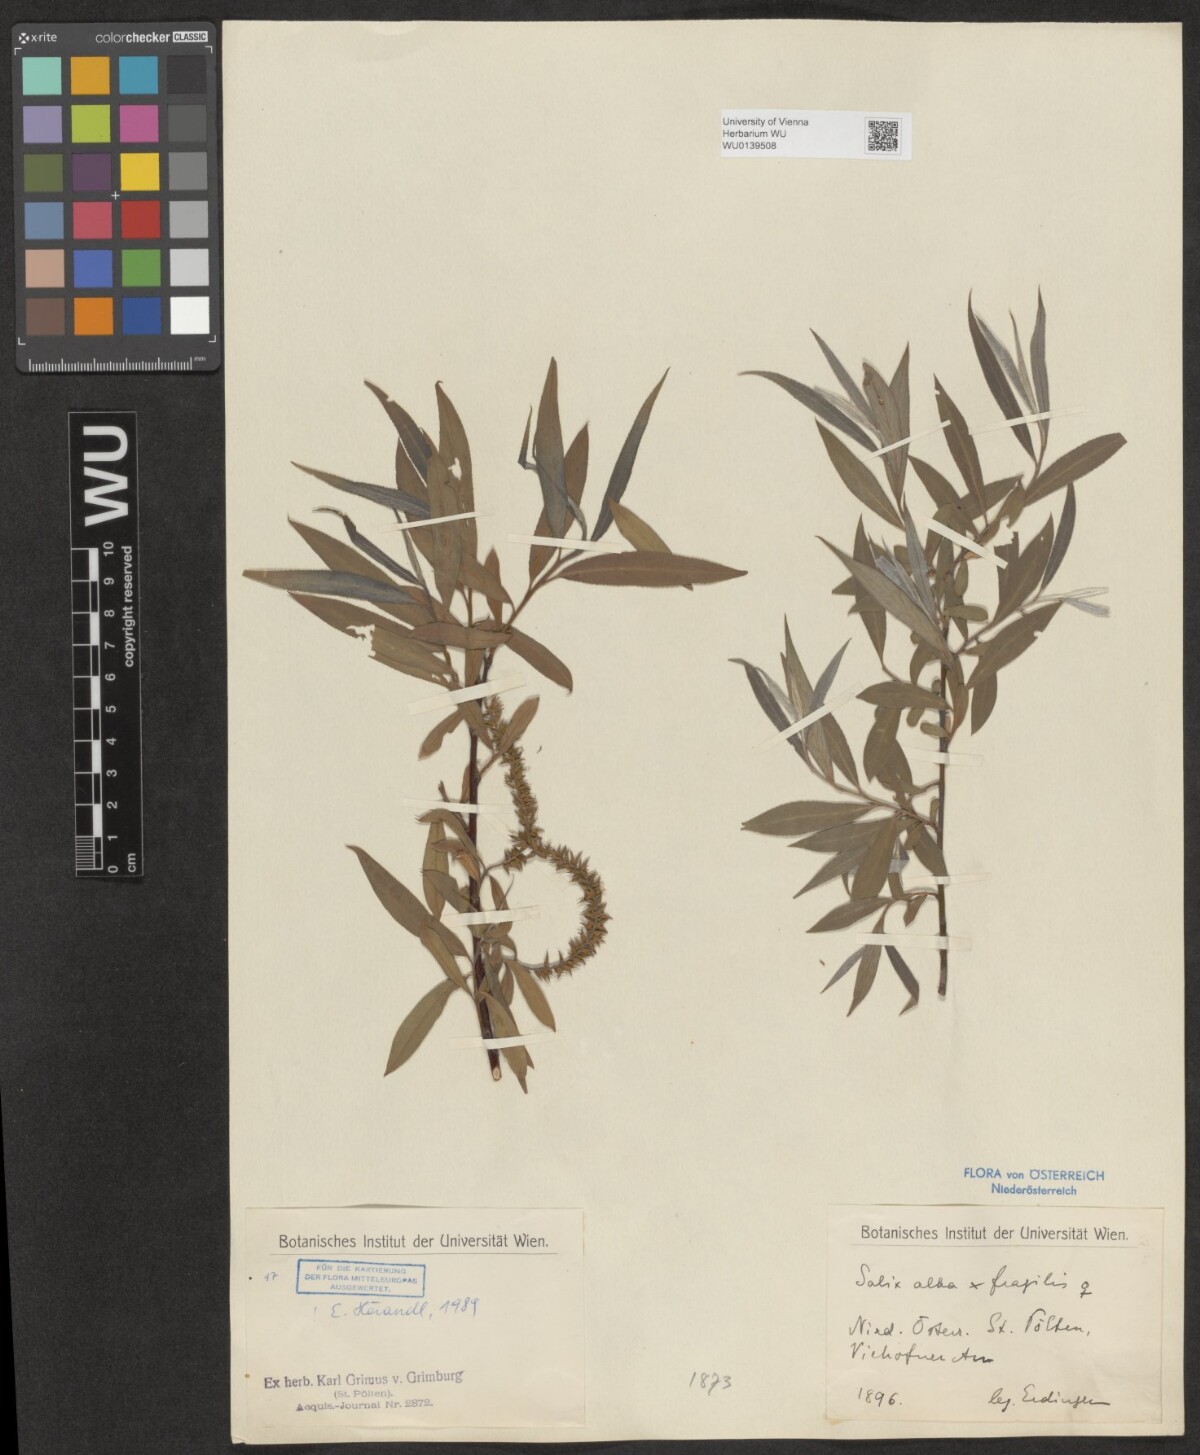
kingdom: Plantae
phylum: Tracheophyta
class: Magnoliopsida
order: Malpighiales
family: Salicaceae
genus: Salix
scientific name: Salix rubens
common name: Hybrid crack willow
